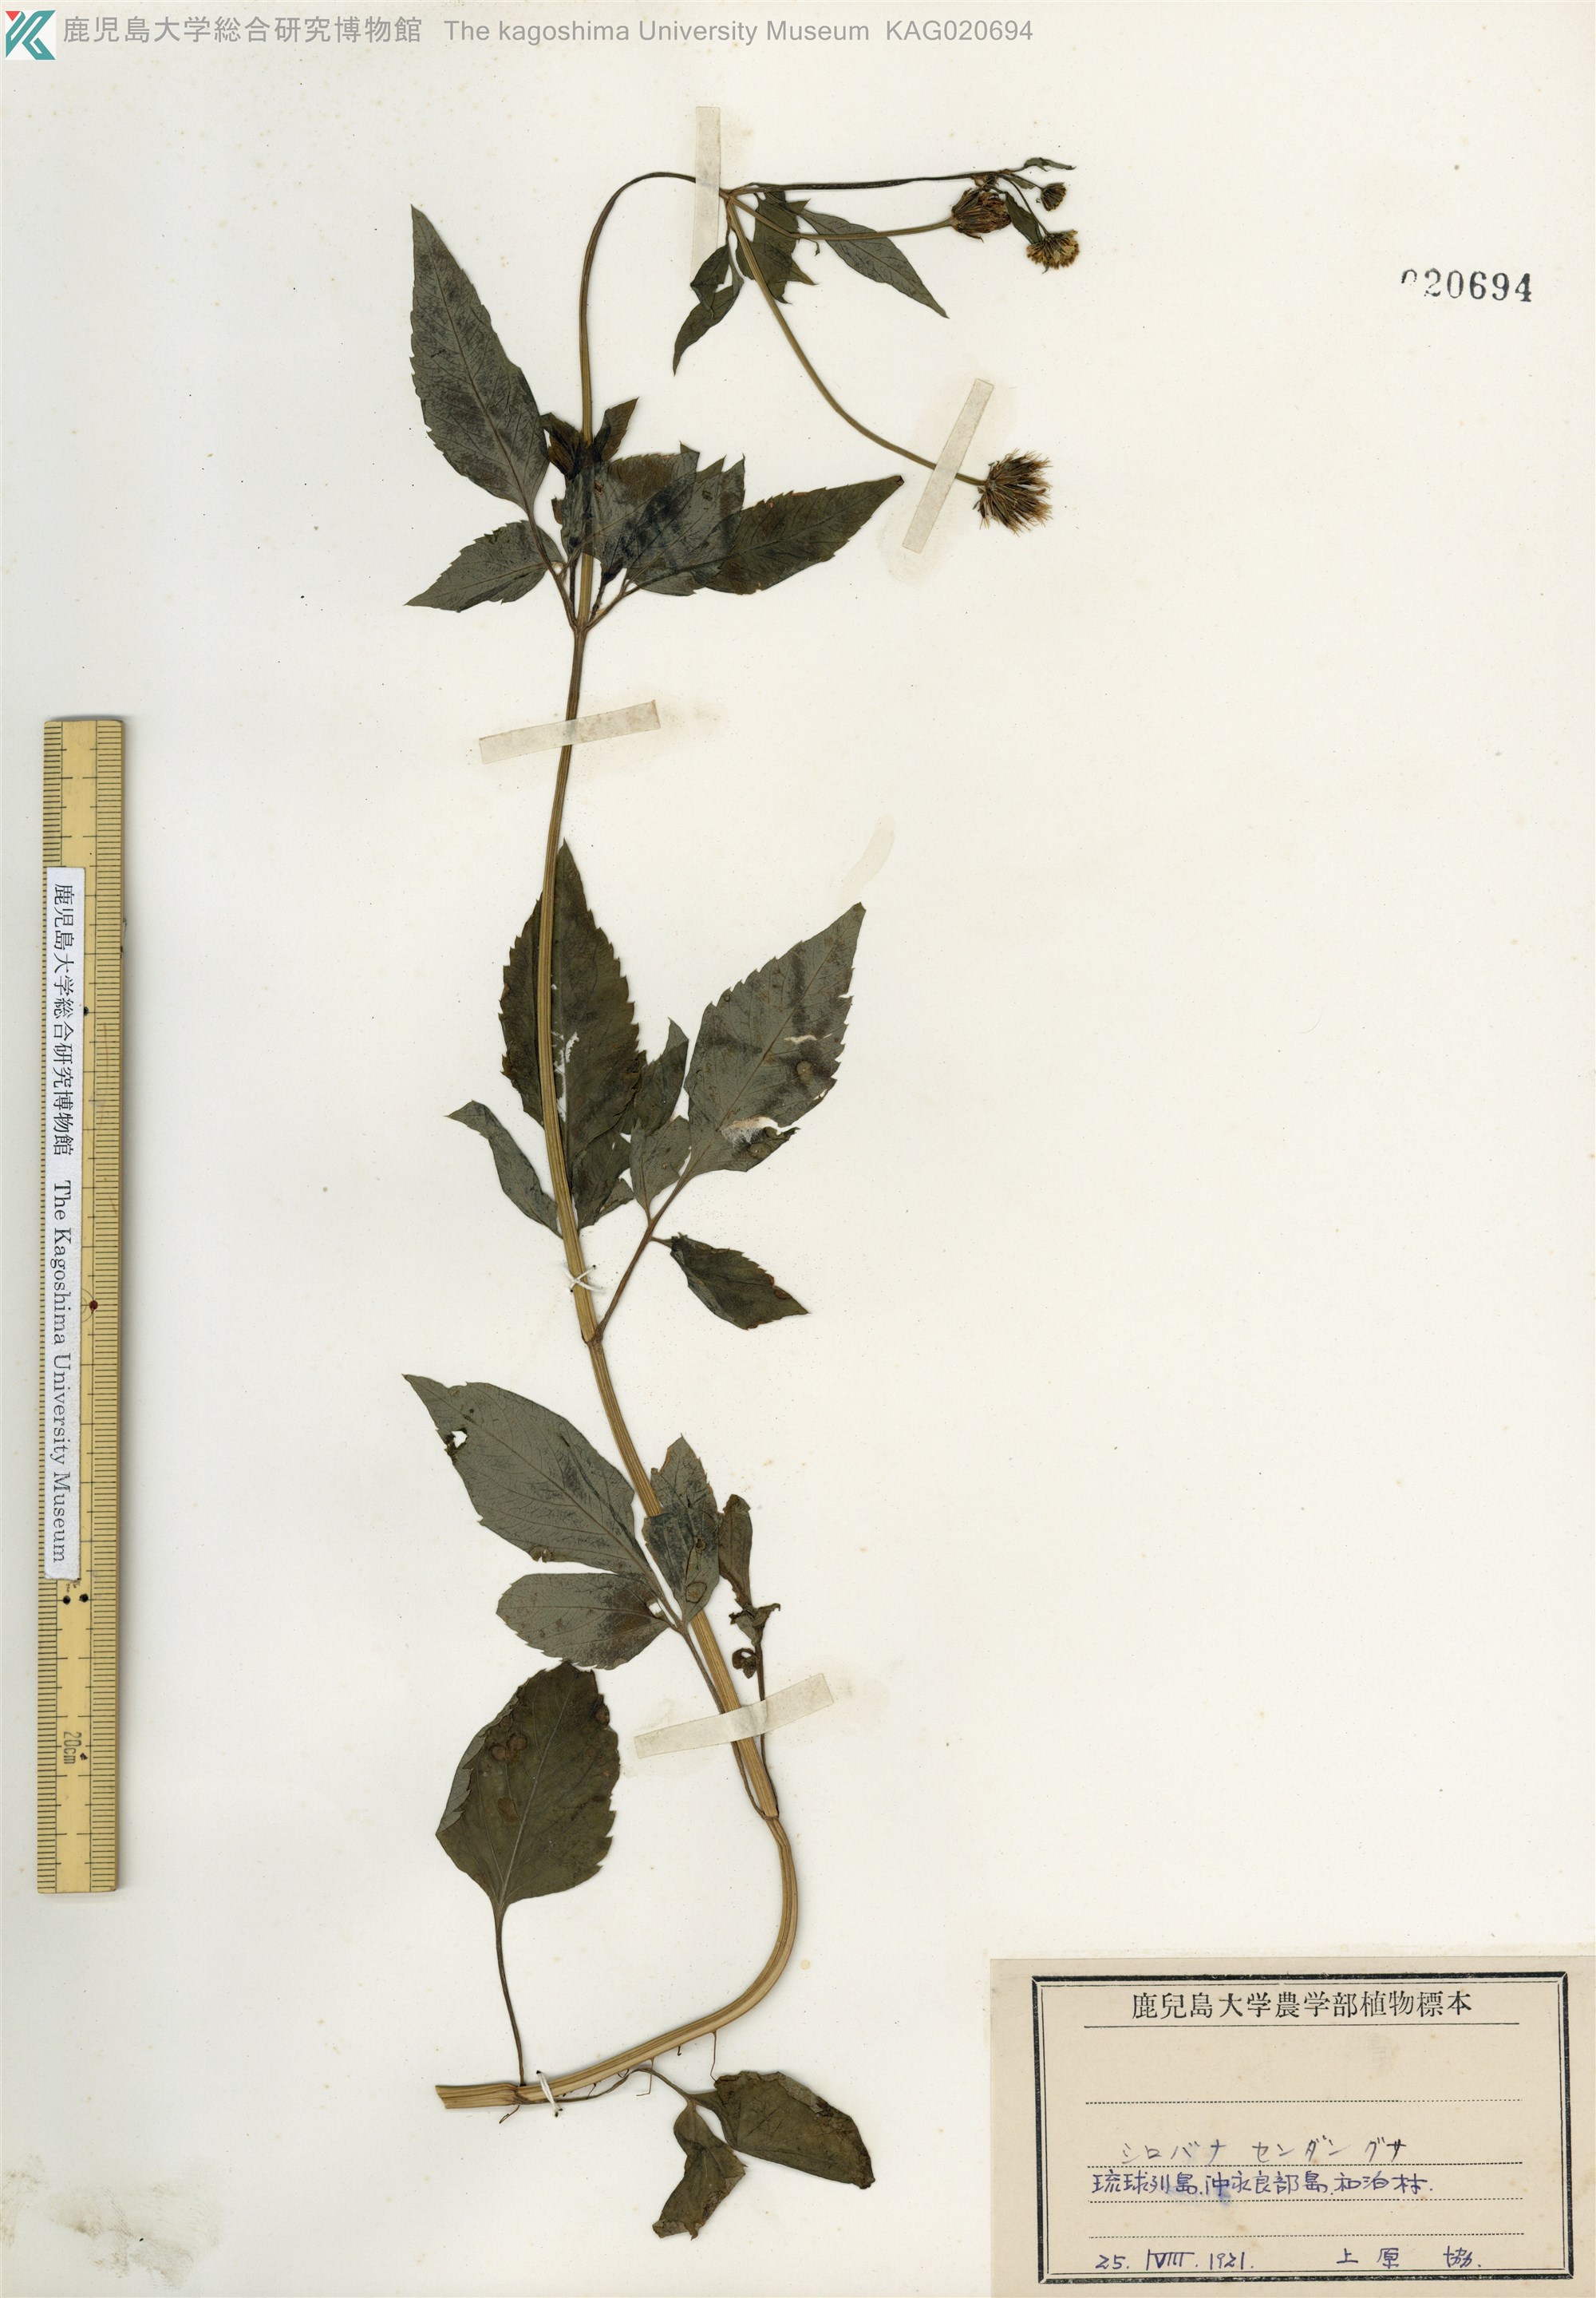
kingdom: Plantae
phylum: Tracheophyta
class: Magnoliopsida
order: Asterales
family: Asteraceae
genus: Bidens
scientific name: Bidens pilosa
